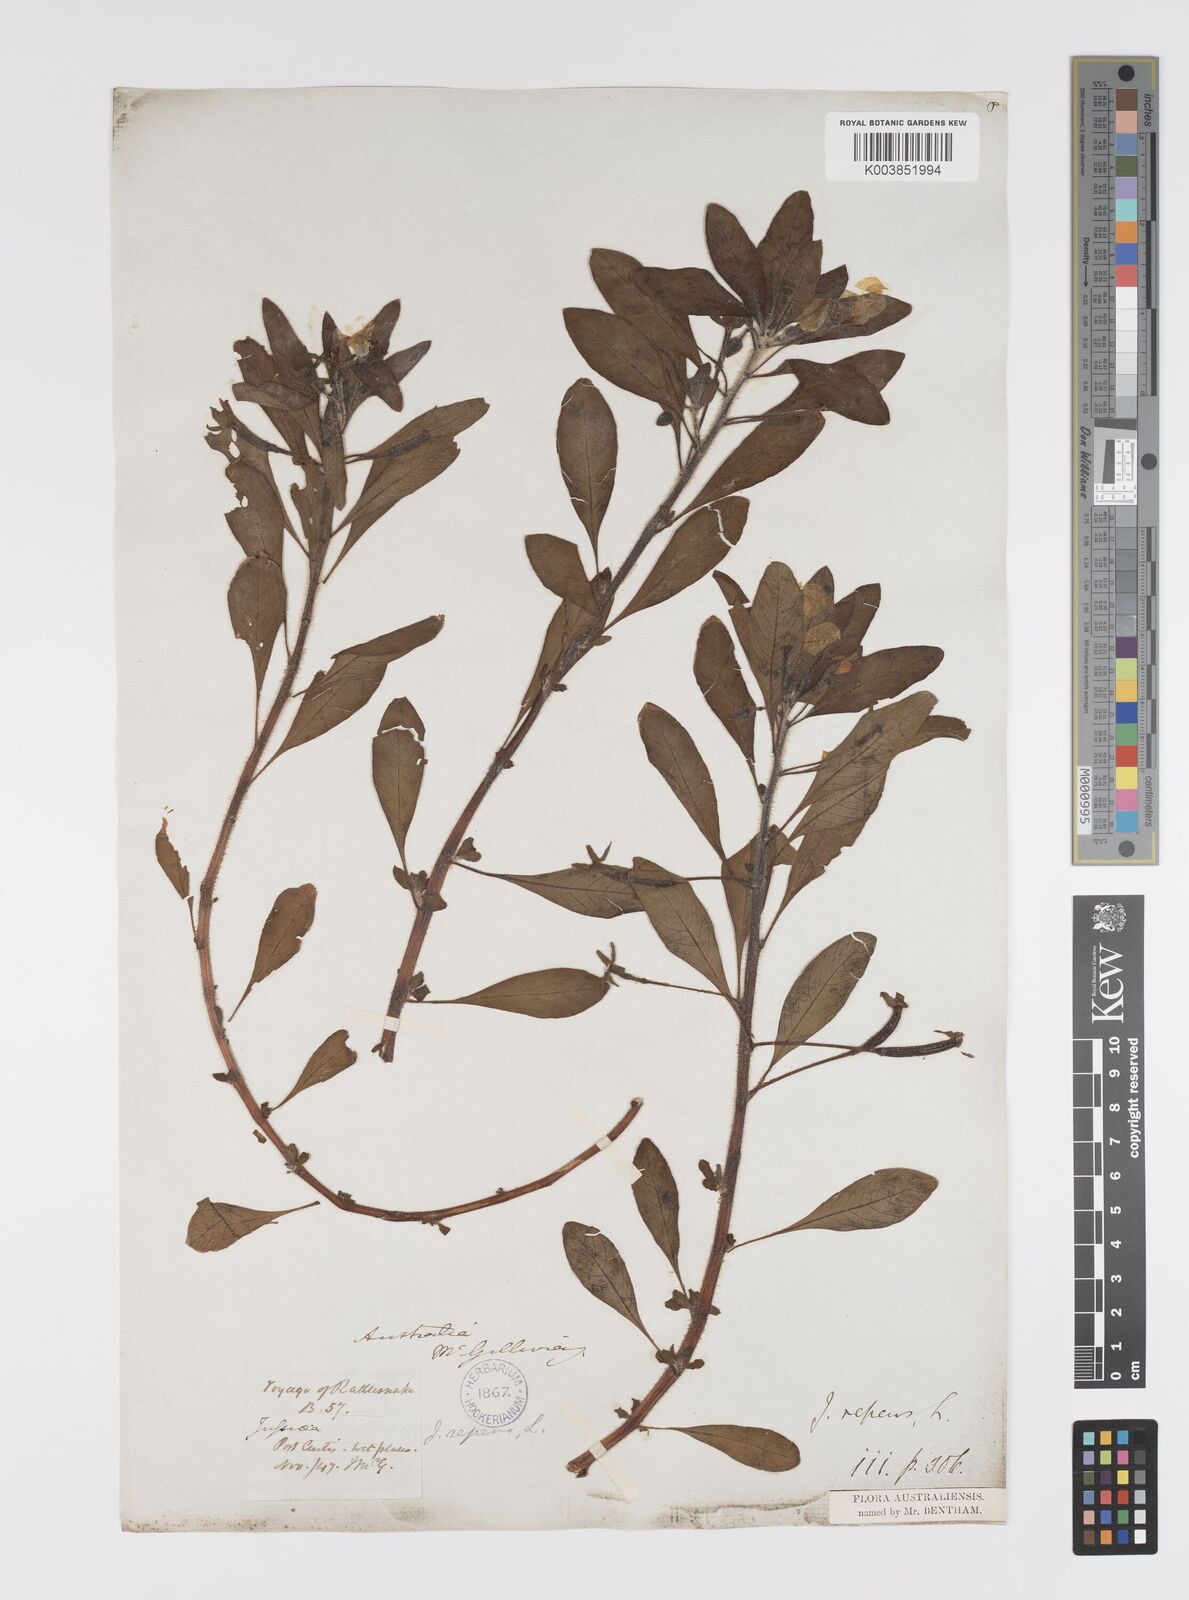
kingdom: Plantae
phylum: Tracheophyta
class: Magnoliopsida
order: Myrtales
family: Onagraceae
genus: Ludwigia
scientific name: Ludwigia peploides
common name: Floating primrose-willow
